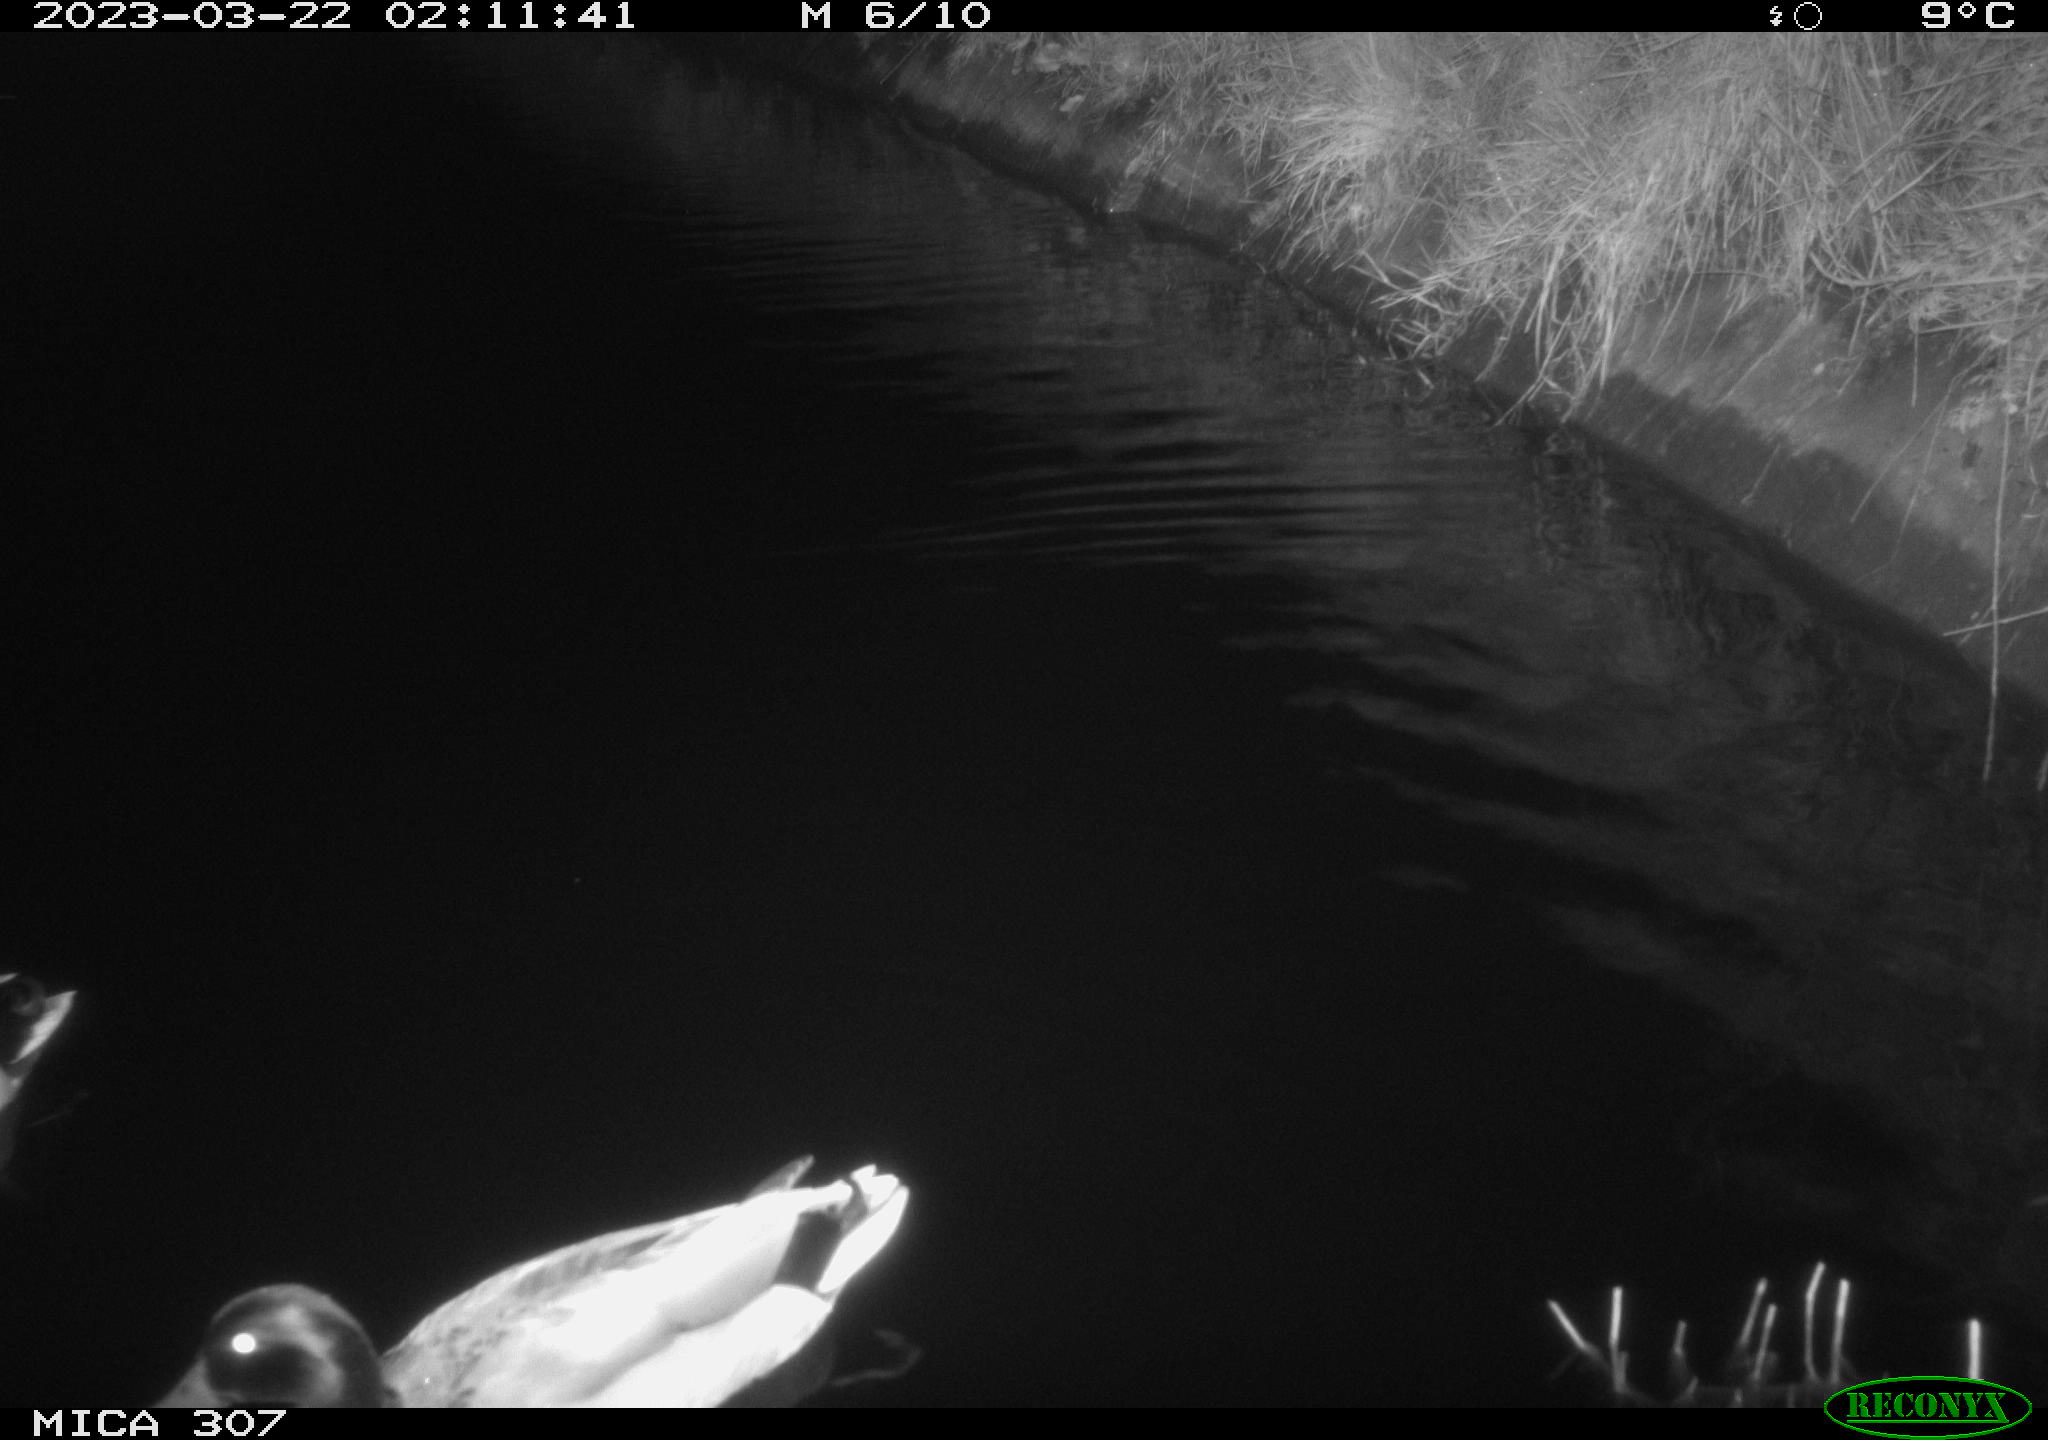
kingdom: Animalia
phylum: Chordata
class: Aves
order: Anseriformes
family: Anatidae
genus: Anas
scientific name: Anas
